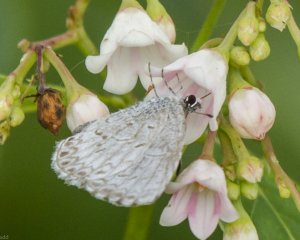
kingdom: Animalia
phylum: Arthropoda
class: Insecta
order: Lepidoptera
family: Lycaenidae
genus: Cyaniris
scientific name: Cyaniris neglecta
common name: Summer Azure
